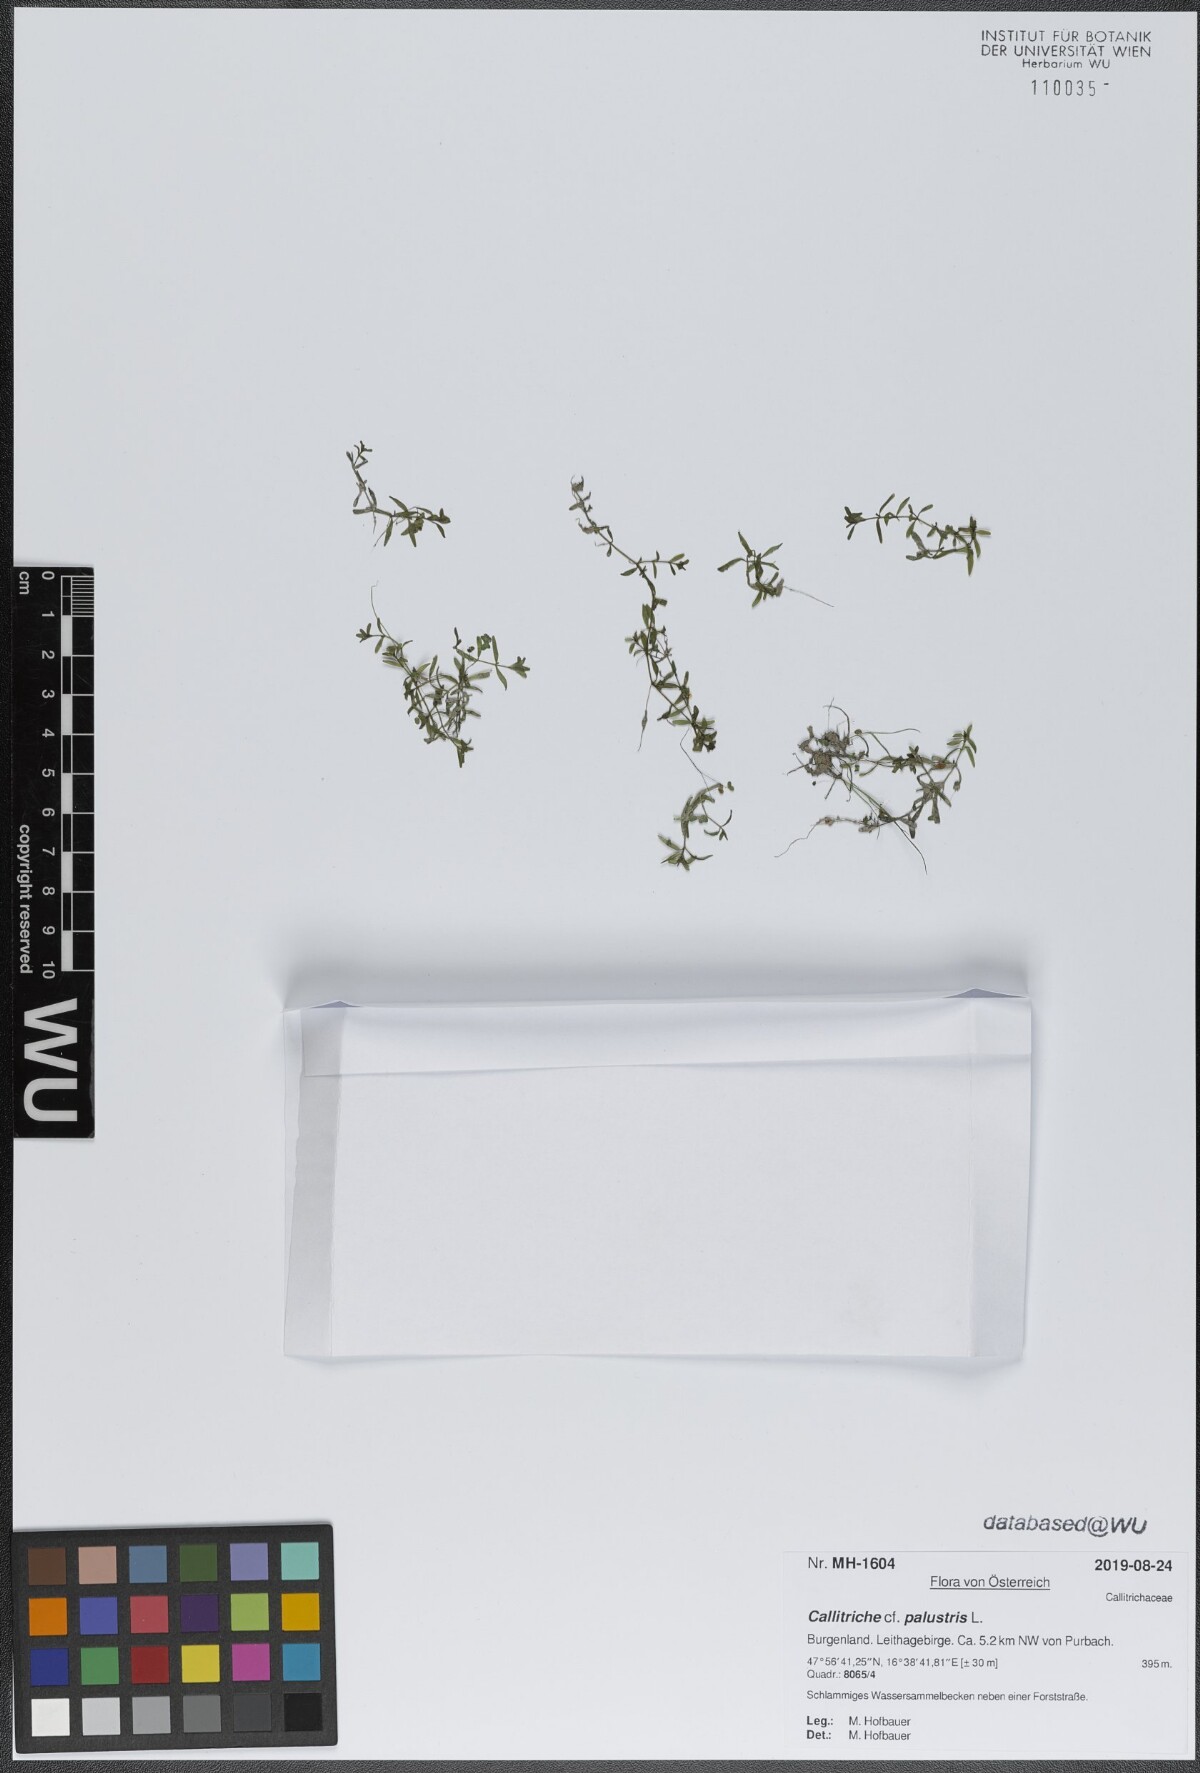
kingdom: Plantae
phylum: Tracheophyta
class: Magnoliopsida
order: Lamiales
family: Plantaginaceae
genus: Callitriche
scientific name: Callitriche palustris
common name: Spring water-starwort
